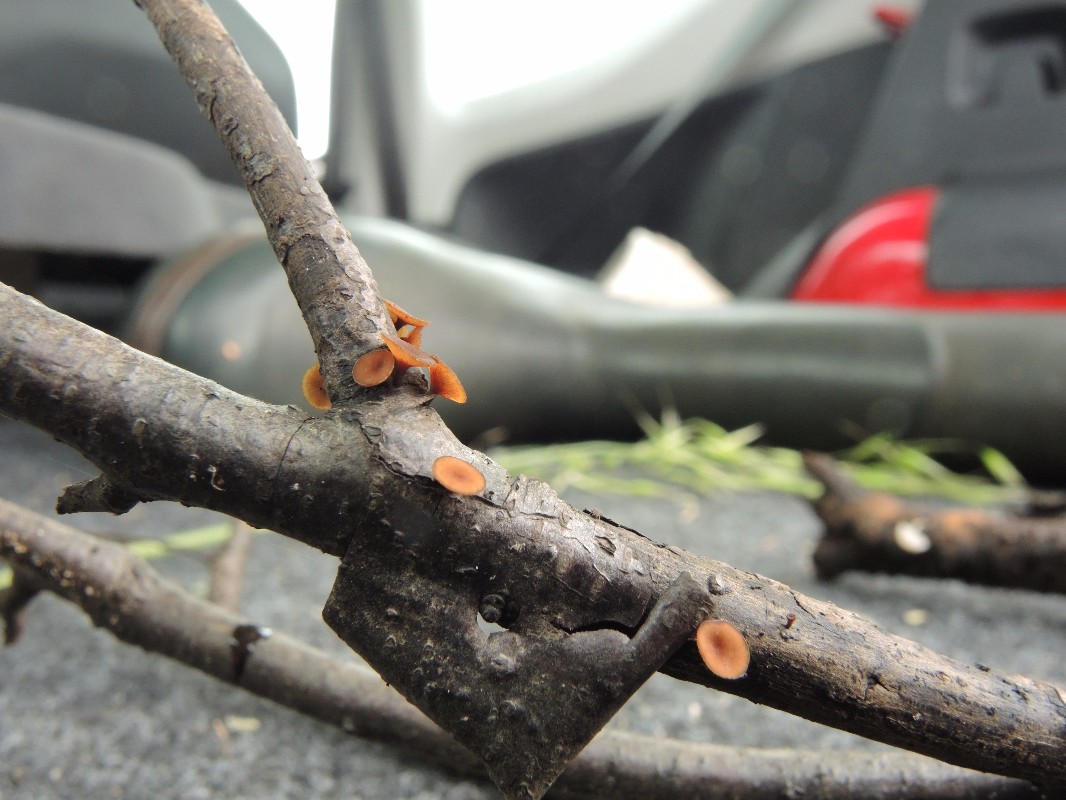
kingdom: Fungi
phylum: Ascomycota
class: Leotiomycetes
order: Helotiales
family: Rutstroemiaceae
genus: Poculum
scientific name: Poculum myricae
